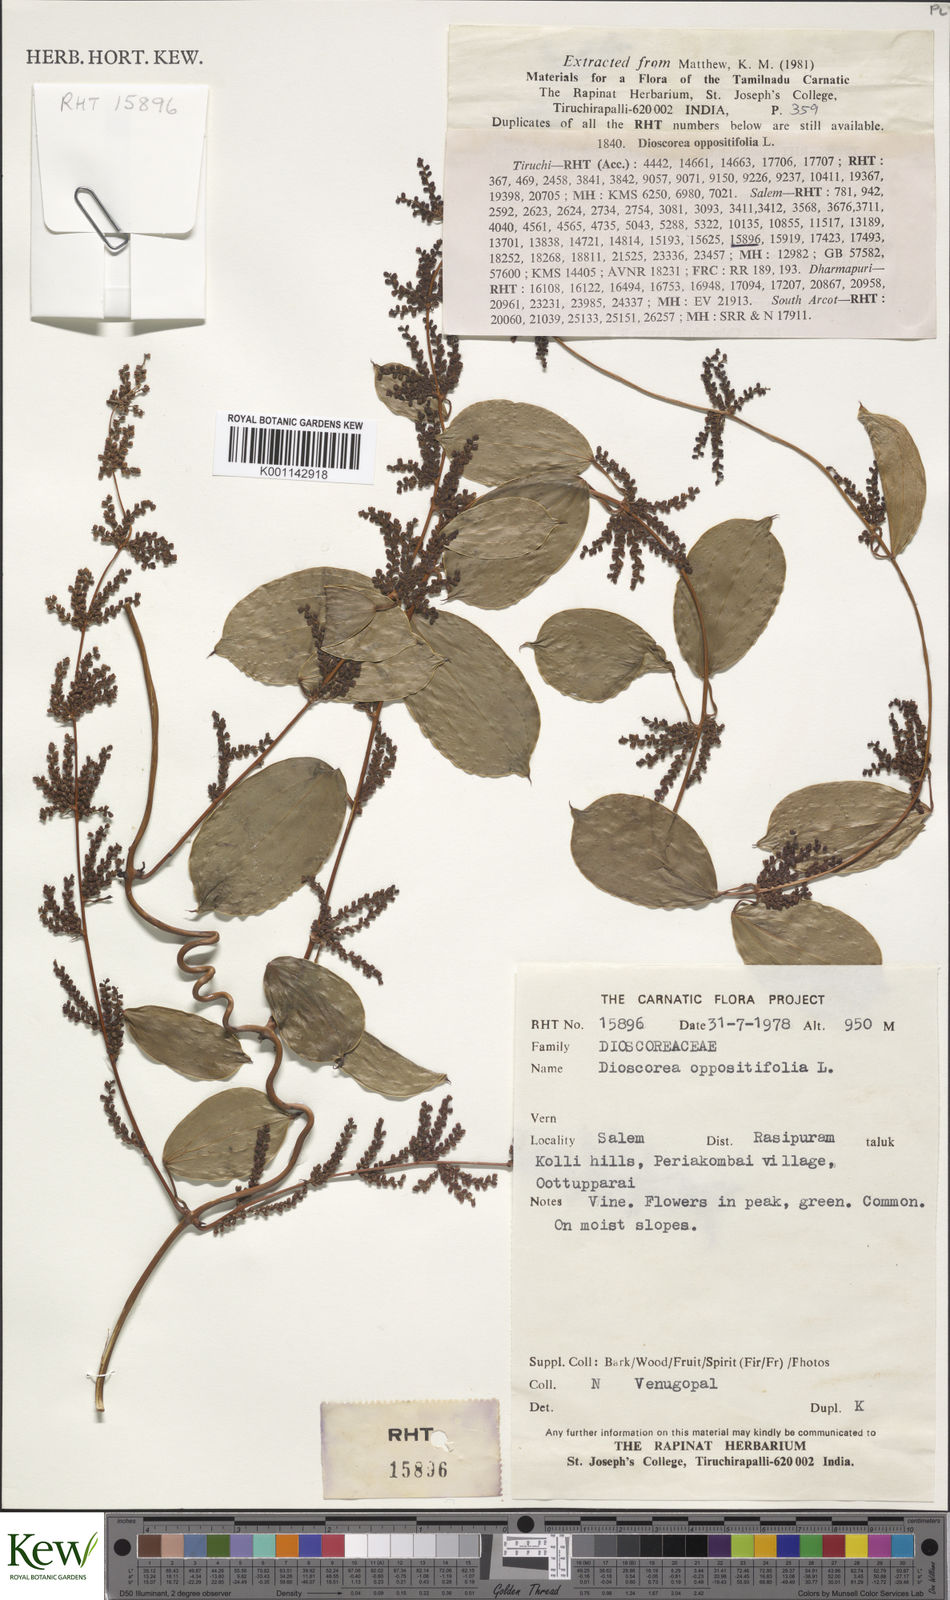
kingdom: Plantae
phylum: Tracheophyta
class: Liliopsida
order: Dioscoreales
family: Dioscoreaceae
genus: Dioscorea
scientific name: Dioscorea oppositifolia
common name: Chinese yam
